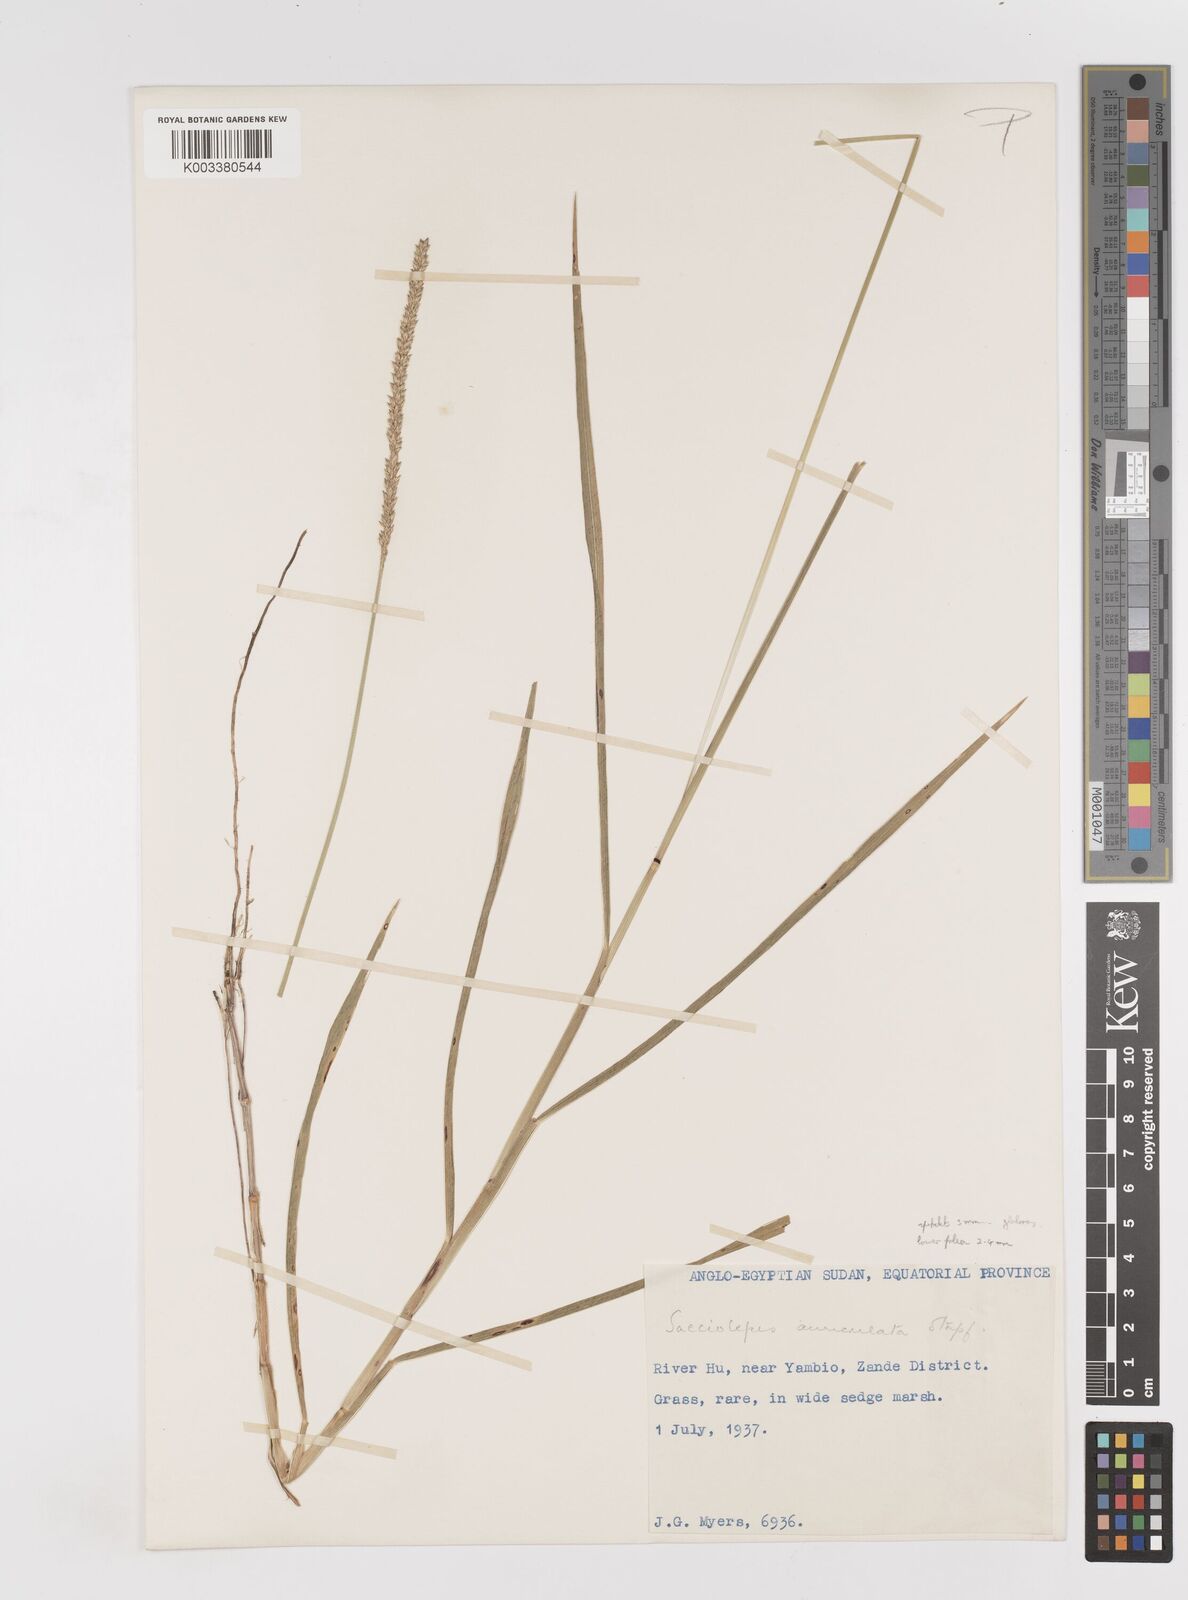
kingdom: Plantae
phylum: Tracheophyta
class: Liliopsida
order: Poales
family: Poaceae
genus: Sacciolepis
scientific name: Sacciolepis indica
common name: Glenwoodgrass
